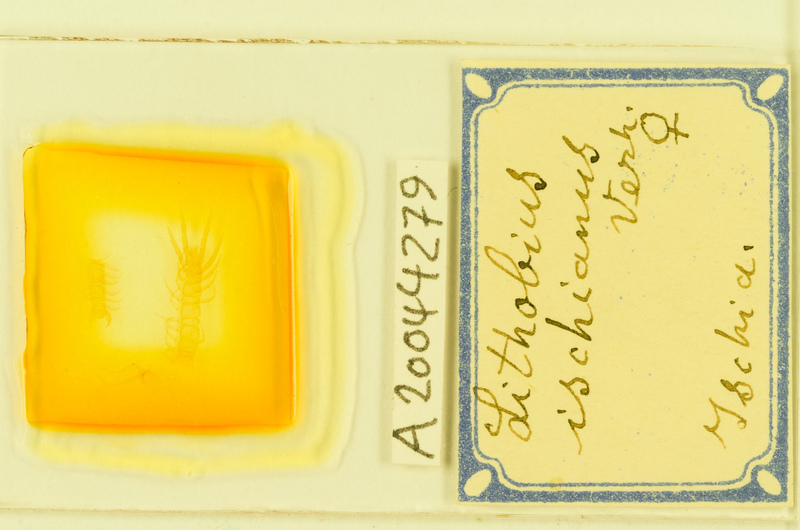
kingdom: Animalia
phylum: Arthropoda
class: Chilopoda
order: Lithobiomorpha
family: Lithobiidae
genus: Lithobius
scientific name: Lithobius cassinensis
